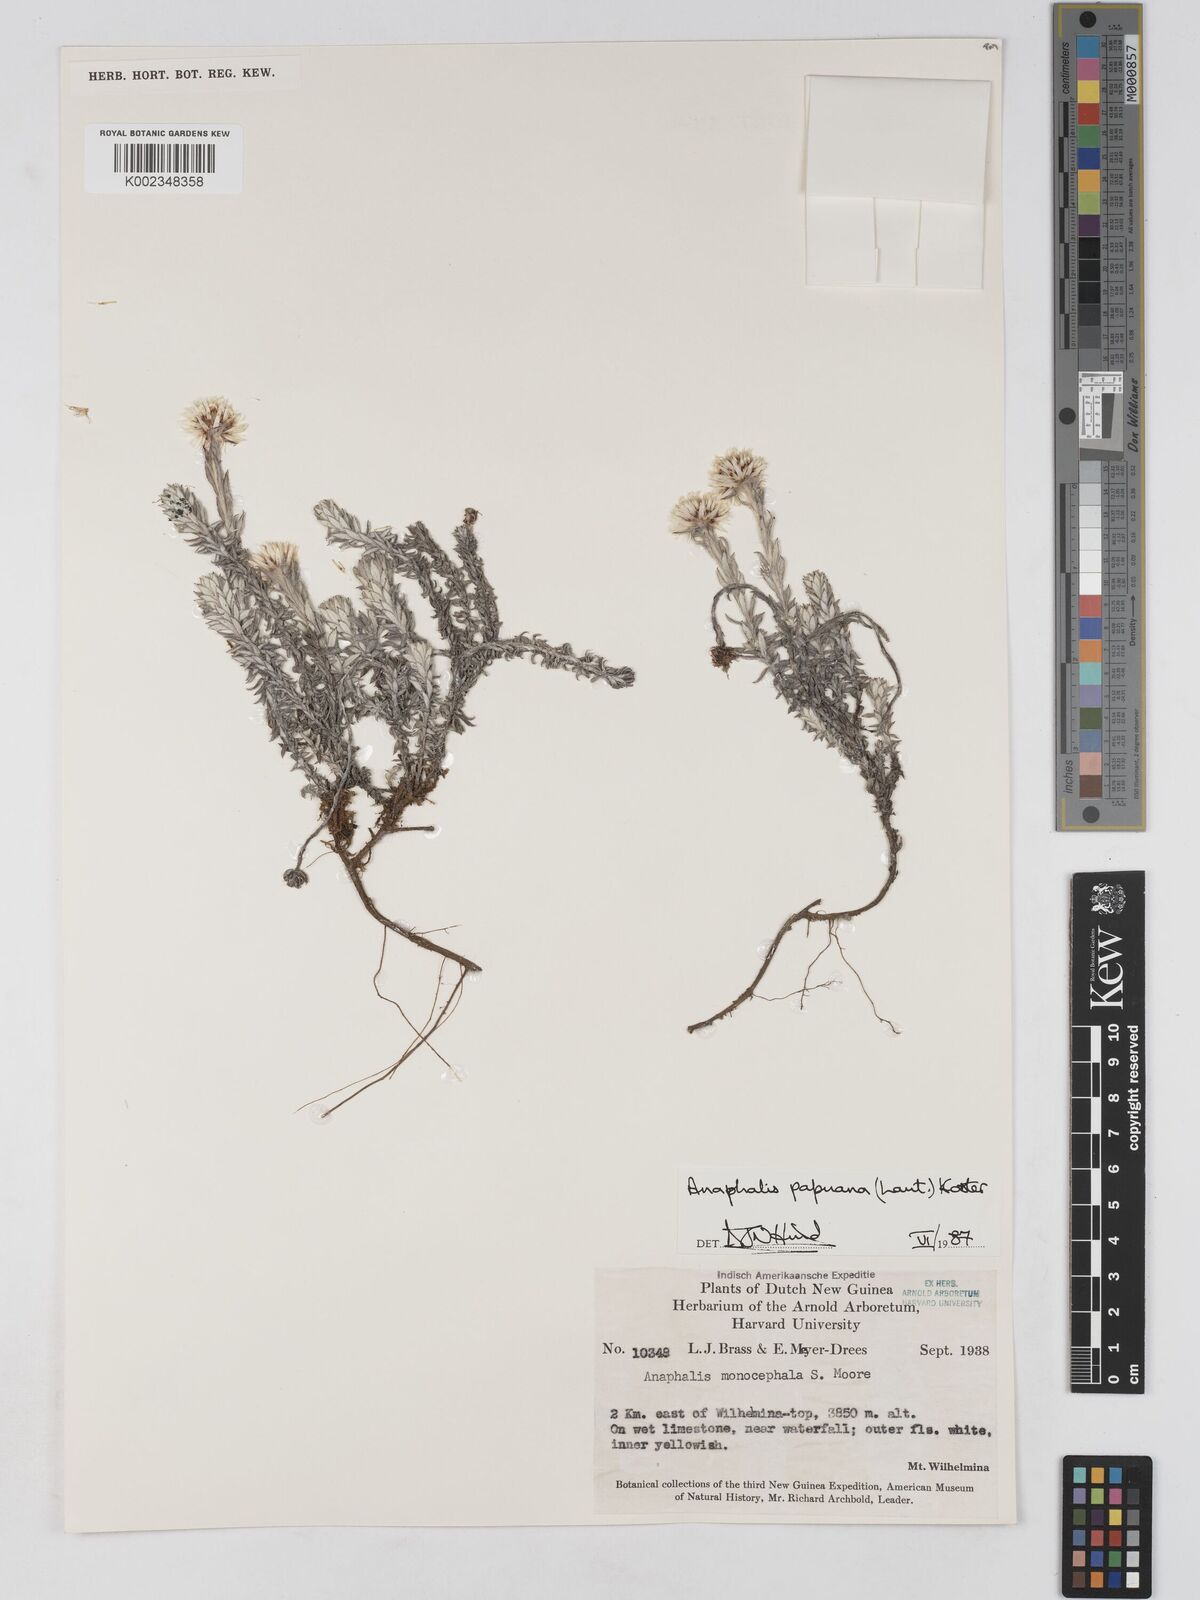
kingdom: Plantae
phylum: Tracheophyta
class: Magnoliopsida
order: Asterales
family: Asteraceae
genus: Anaphalioides
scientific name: Anaphalioides papuana
